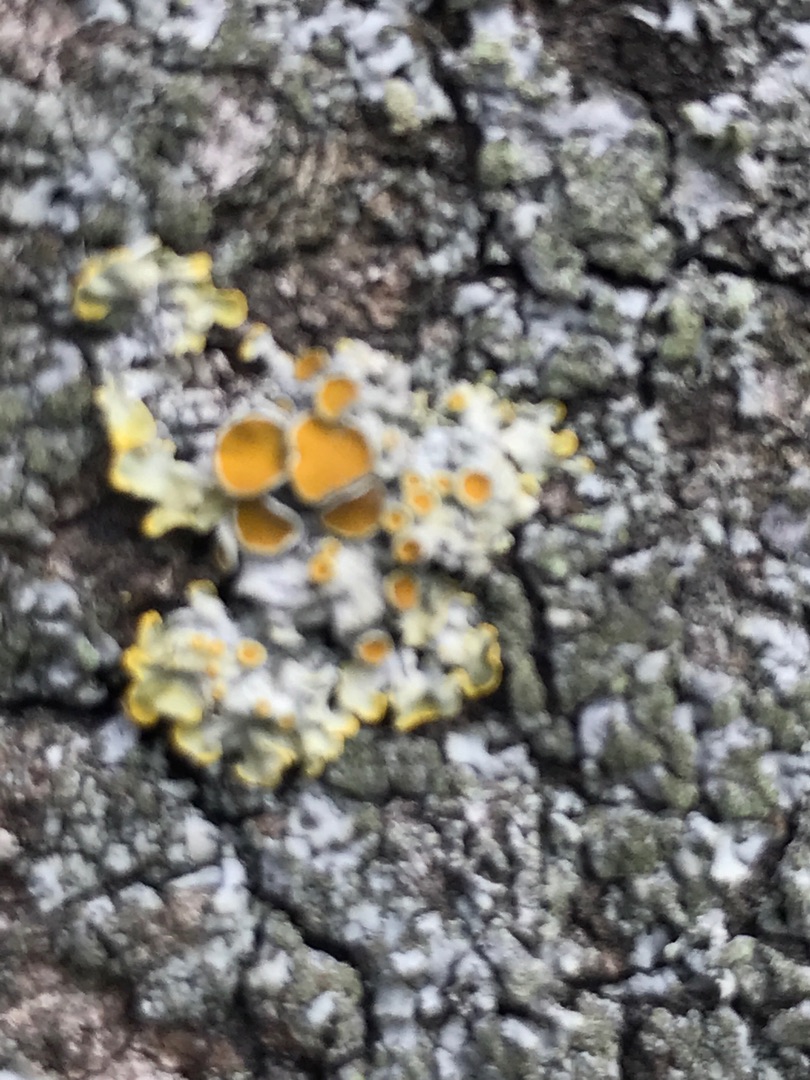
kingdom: Fungi
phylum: Ascomycota
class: Lecanoromycetes
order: Teloschistales
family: Teloschistaceae
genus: Xanthoria
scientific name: Xanthoria parietina
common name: Almindelig væggelav
